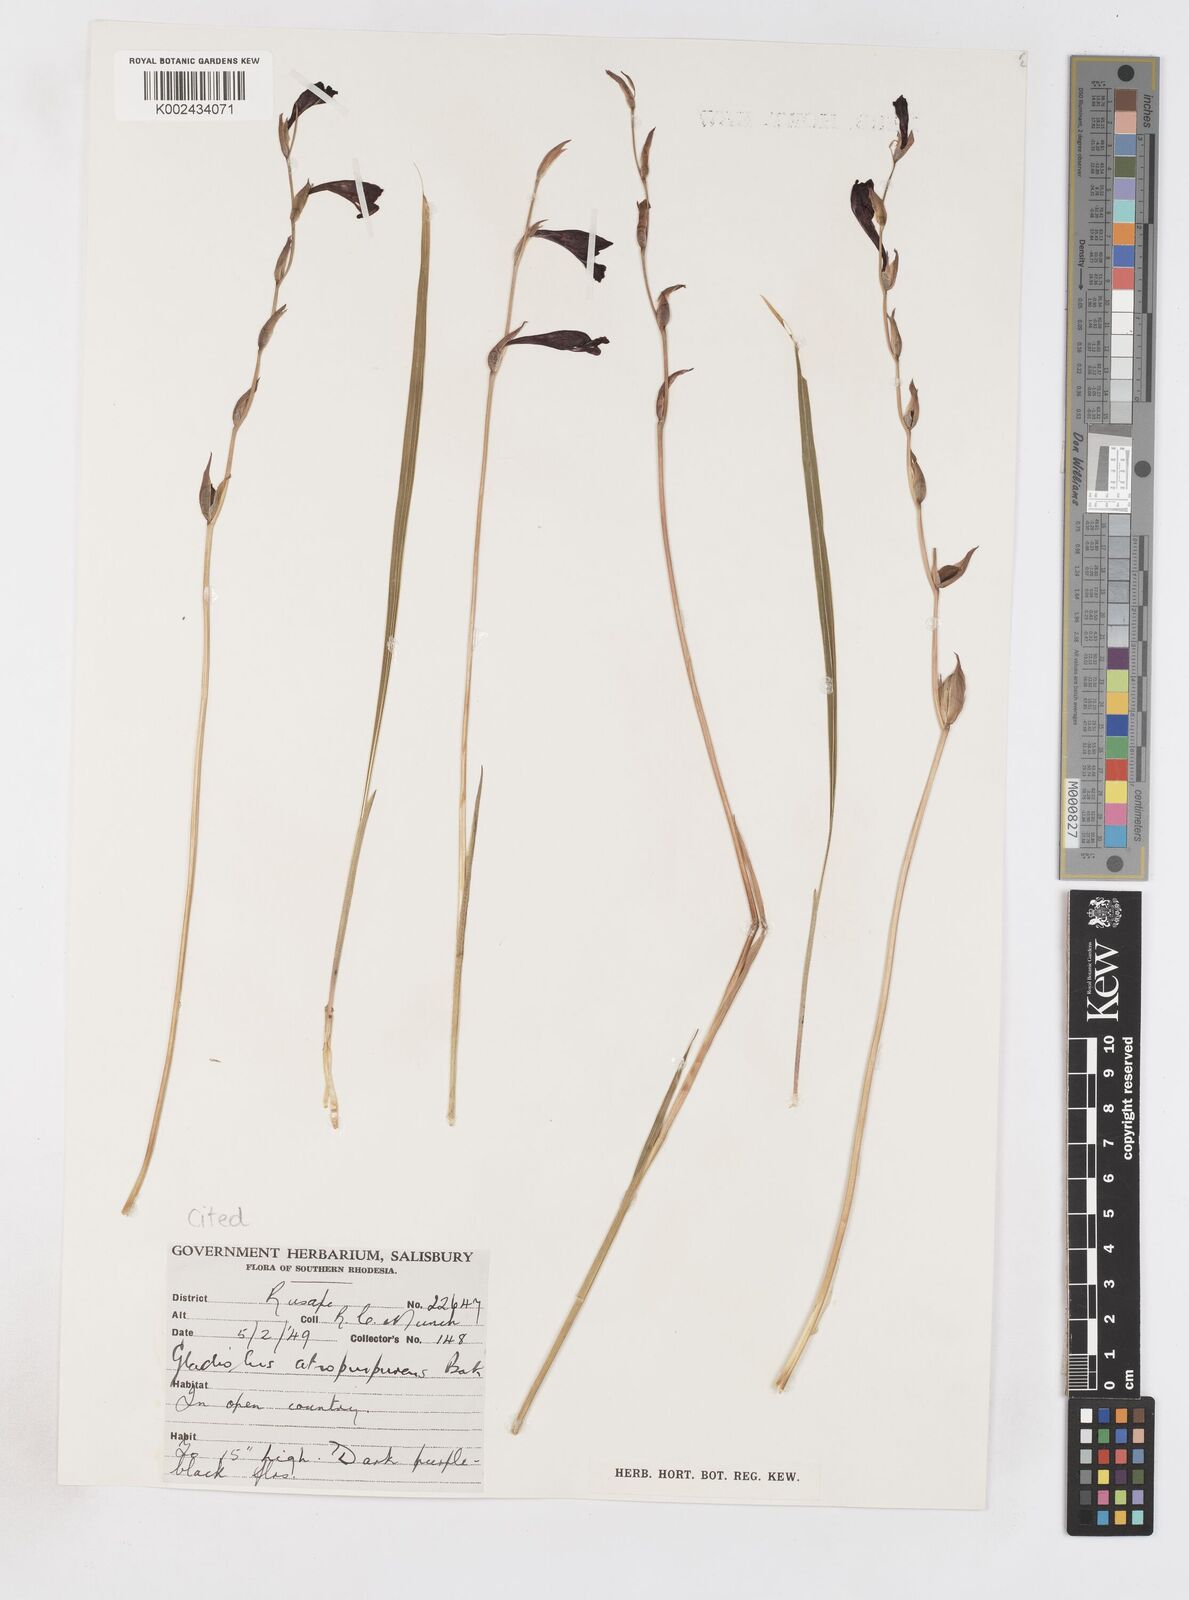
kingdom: Plantae
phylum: Tracheophyta
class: Liliopsida
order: Asparagales
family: Iridaceae
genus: Gladiolus
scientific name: Gladiolus atropurpureus
